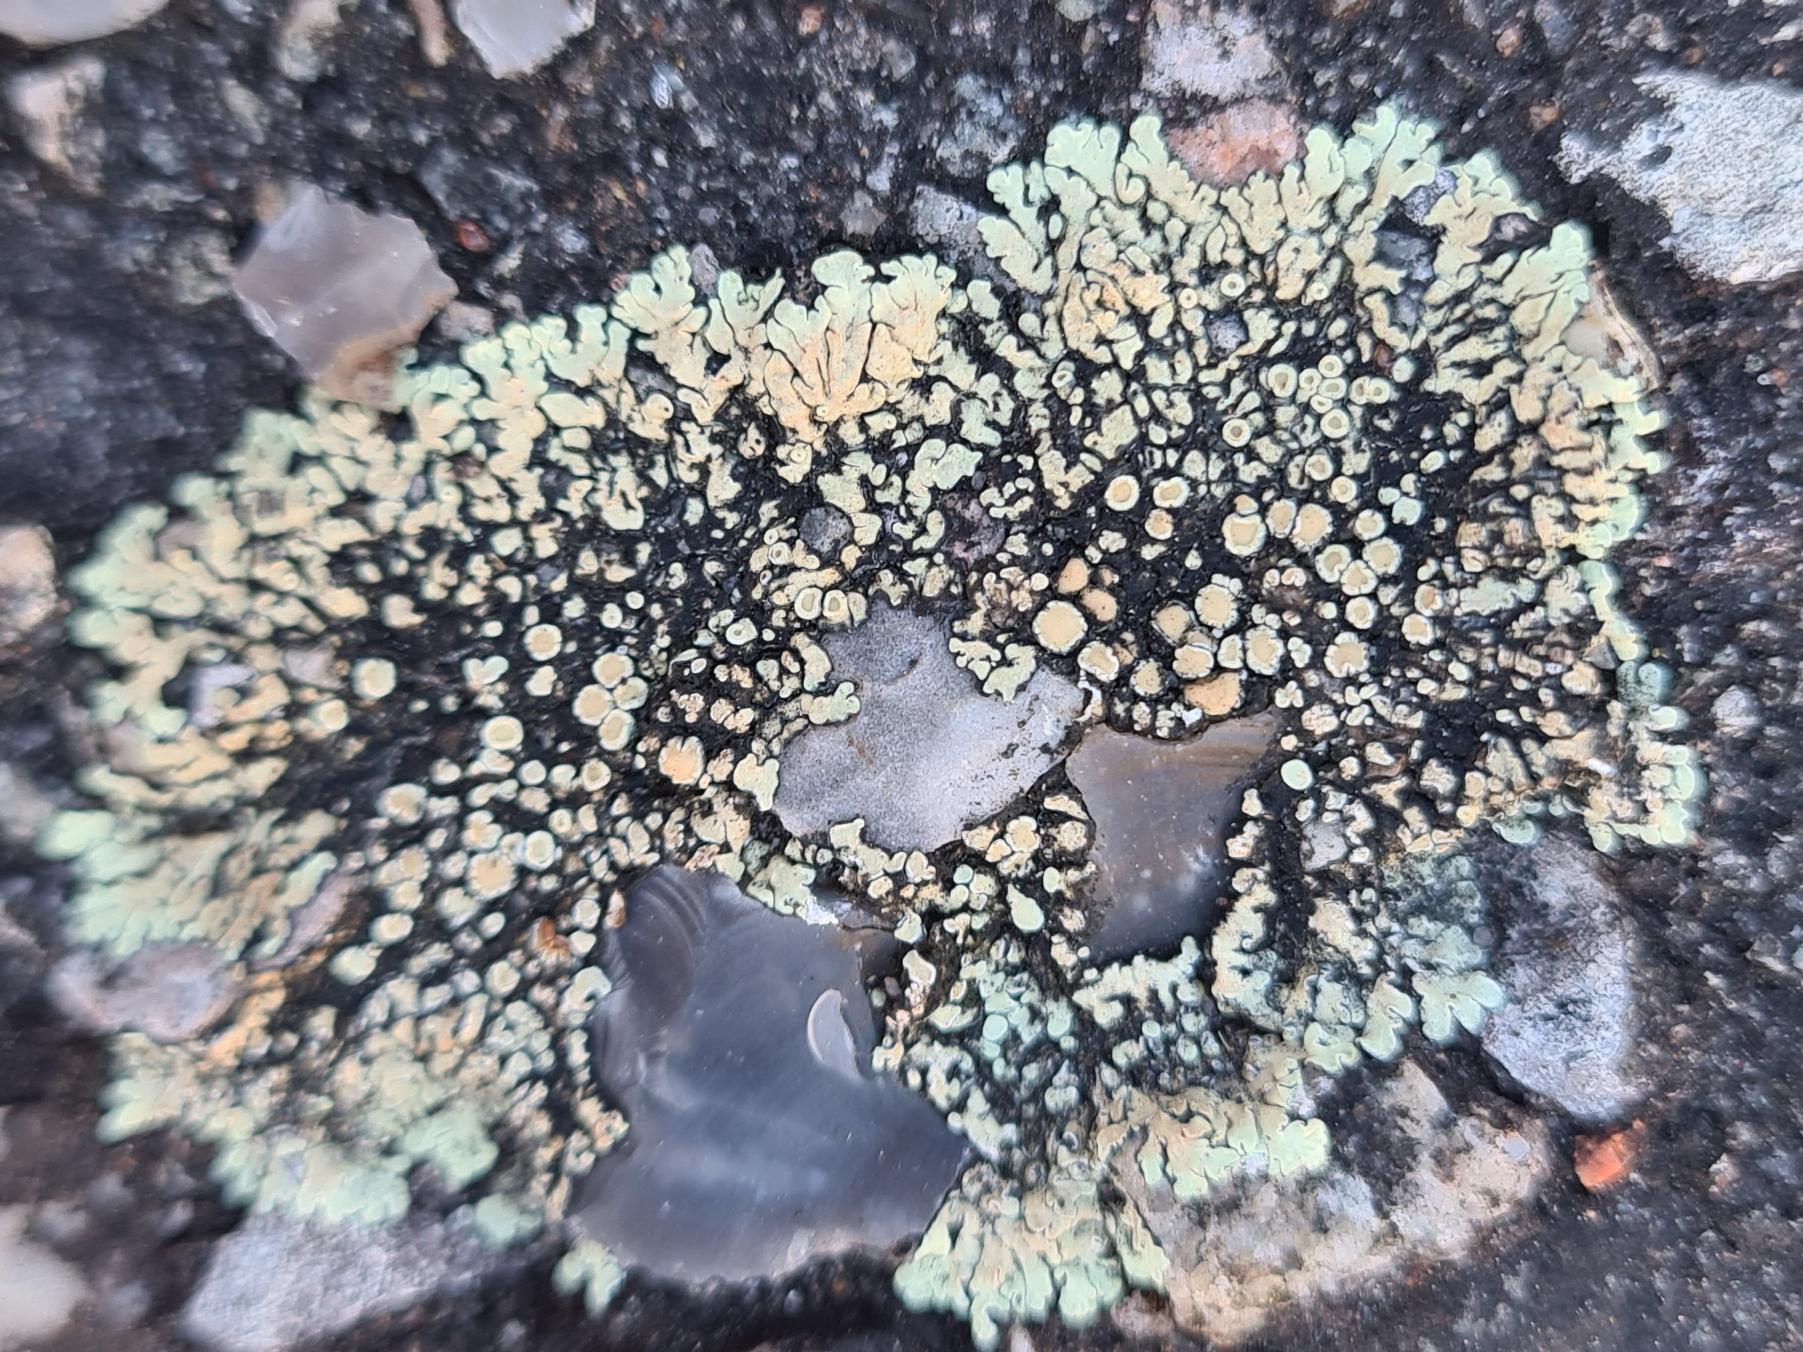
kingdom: Fungi
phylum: Ascomycota
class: Lecanoromycetes
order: Lecanorales
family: Lecanoraceae
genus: Protoparmeliopsis
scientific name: Protoparmeliopsis muralis
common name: Randfliget kantskivelav
